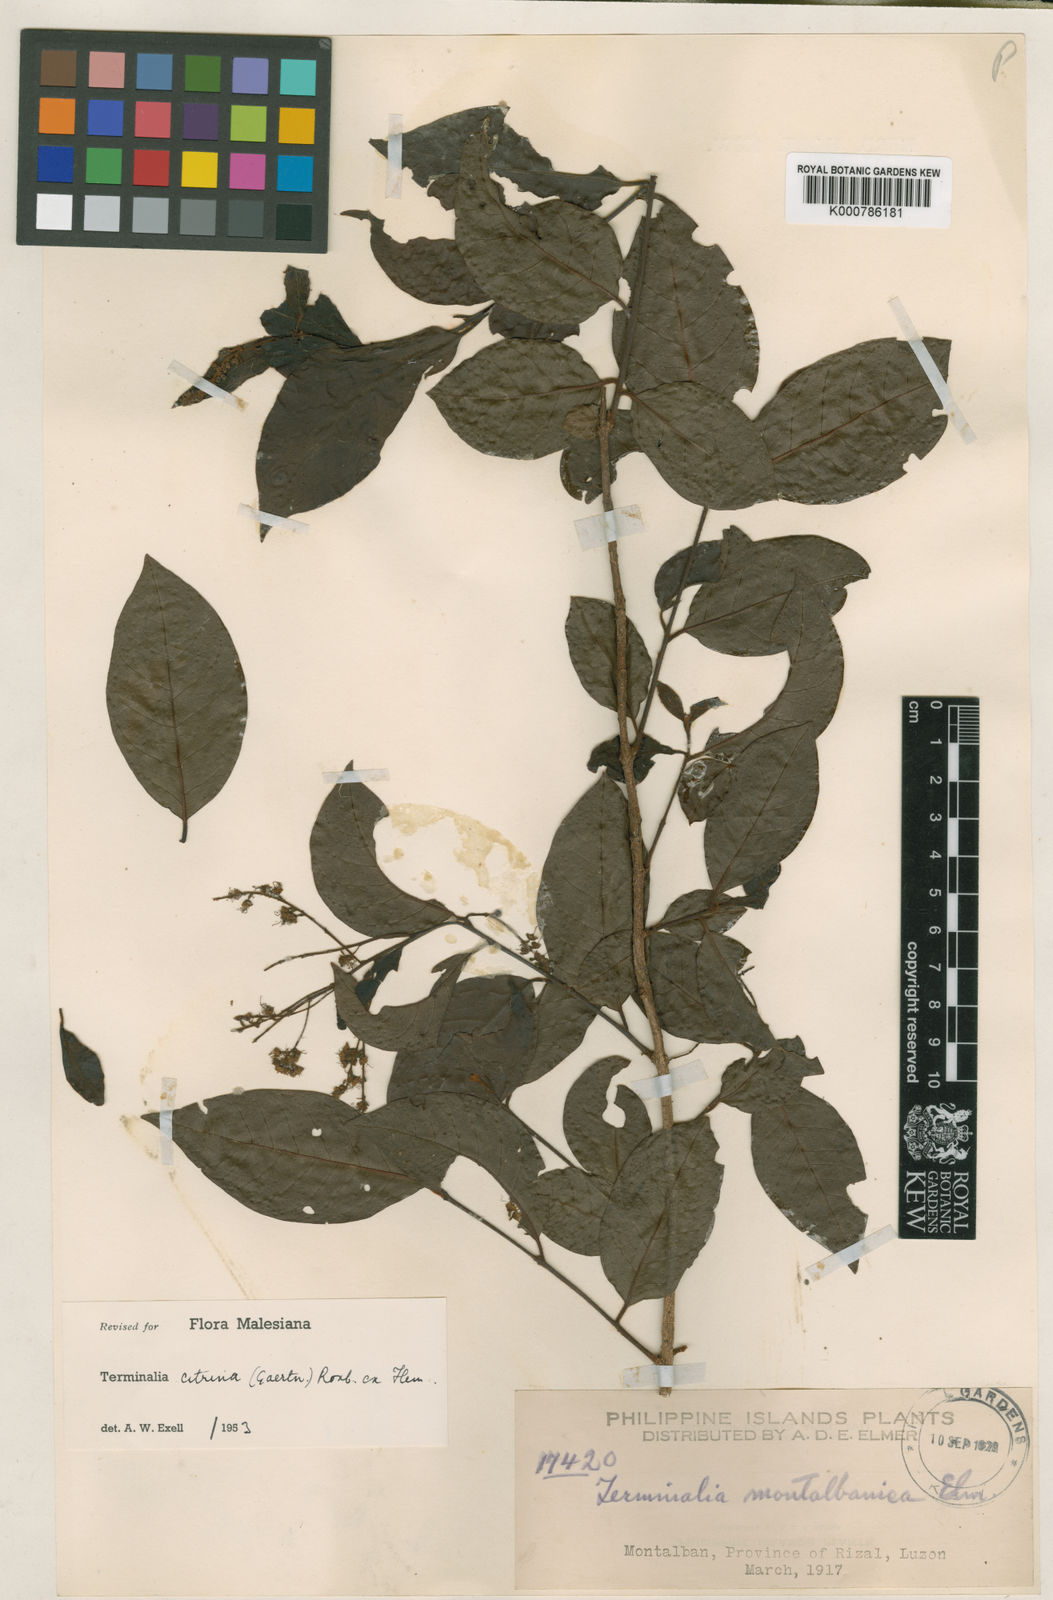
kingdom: Plantae
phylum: Tracheophyta
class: Magnoliopsida
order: Myrtales
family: Combretaceae
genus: Terminalia
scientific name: Terminalia
